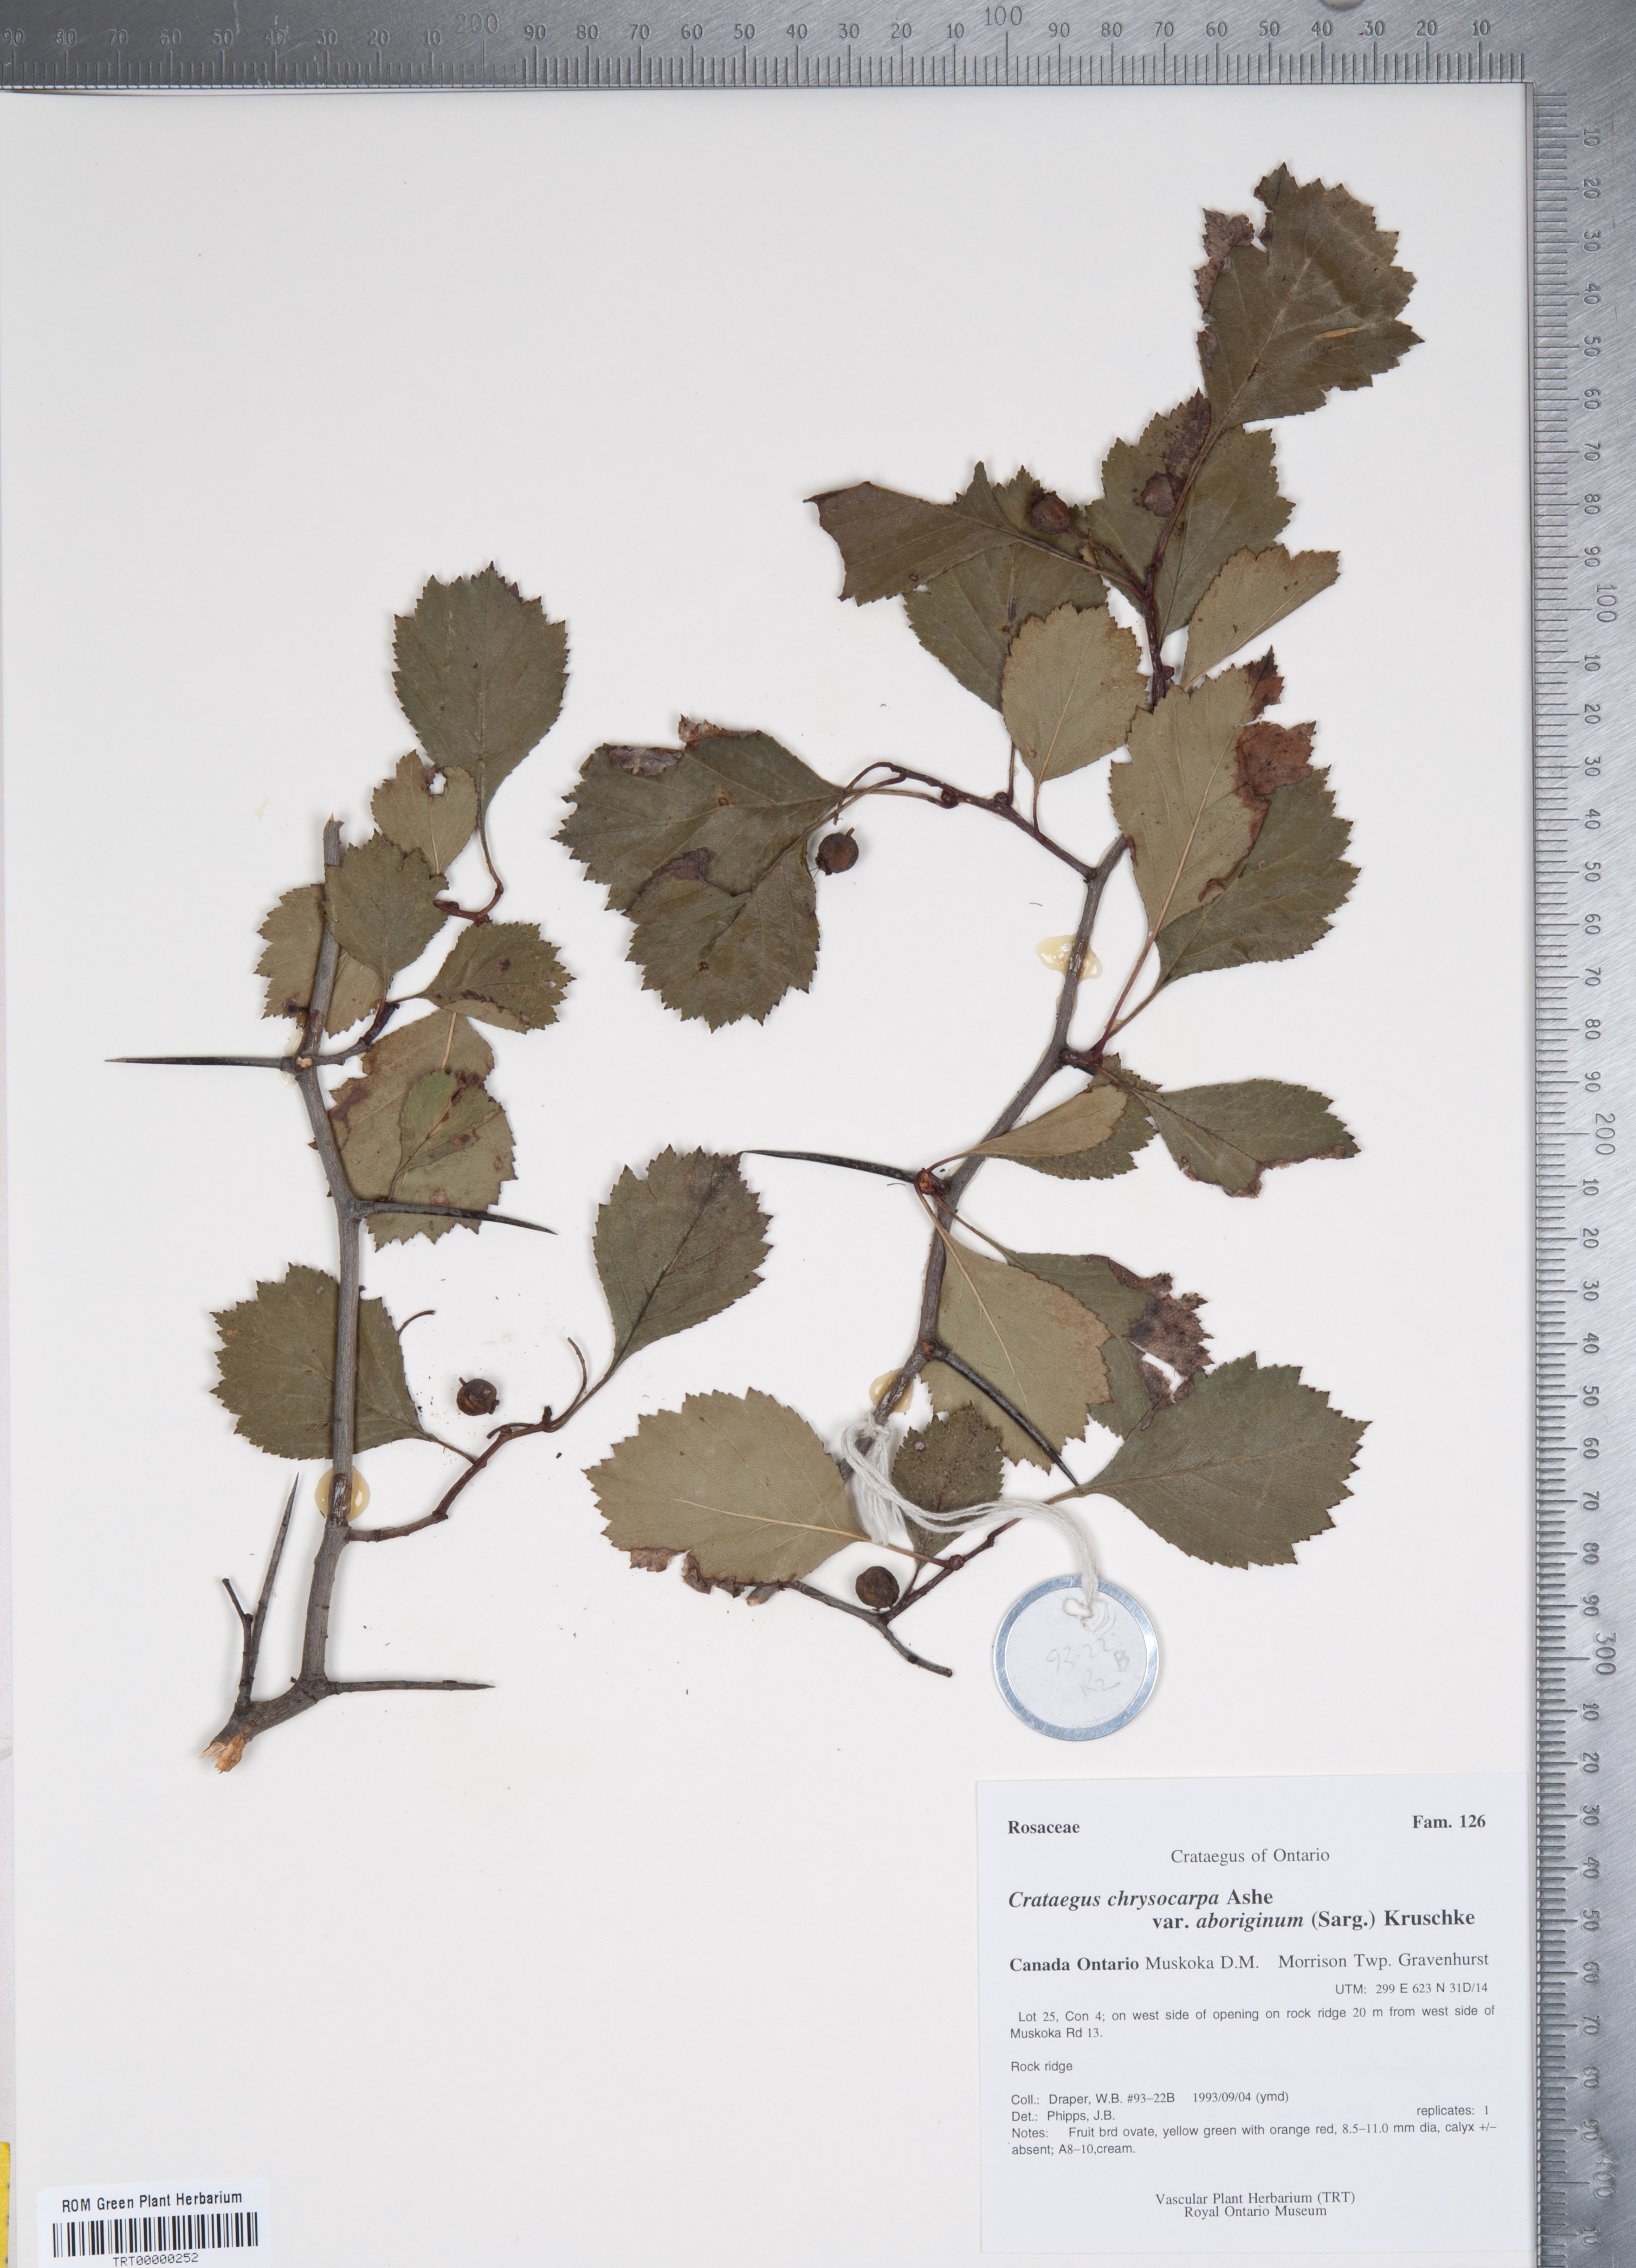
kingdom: Plantae
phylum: Tracheophyta
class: Magnoliopsida
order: Rosales
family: Rosaceae
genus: Crataegus
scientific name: Crataegus chrysocarpa
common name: Fire-berry hawthorn
